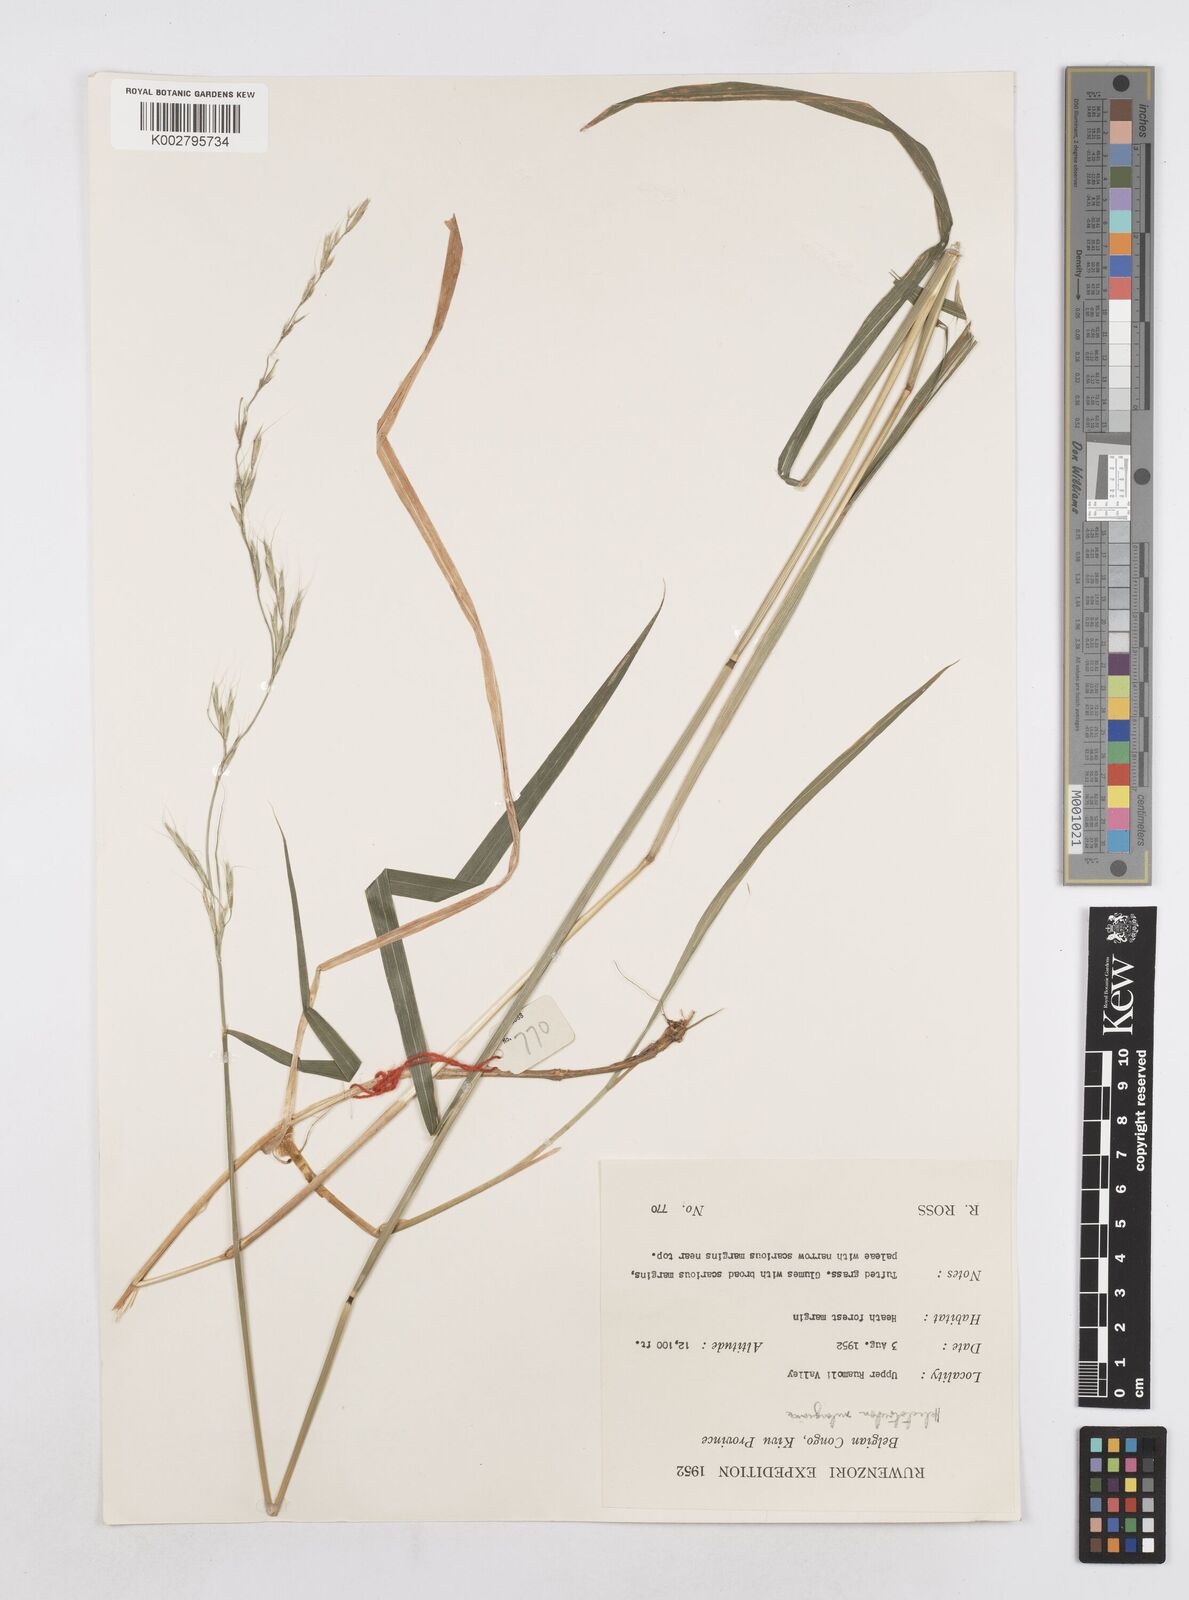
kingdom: Plantae
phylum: Tracheophyta
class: Liliopsida
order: Poales
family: Poaceae
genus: Trisetopsis
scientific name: Trisetopsis milanjiana
